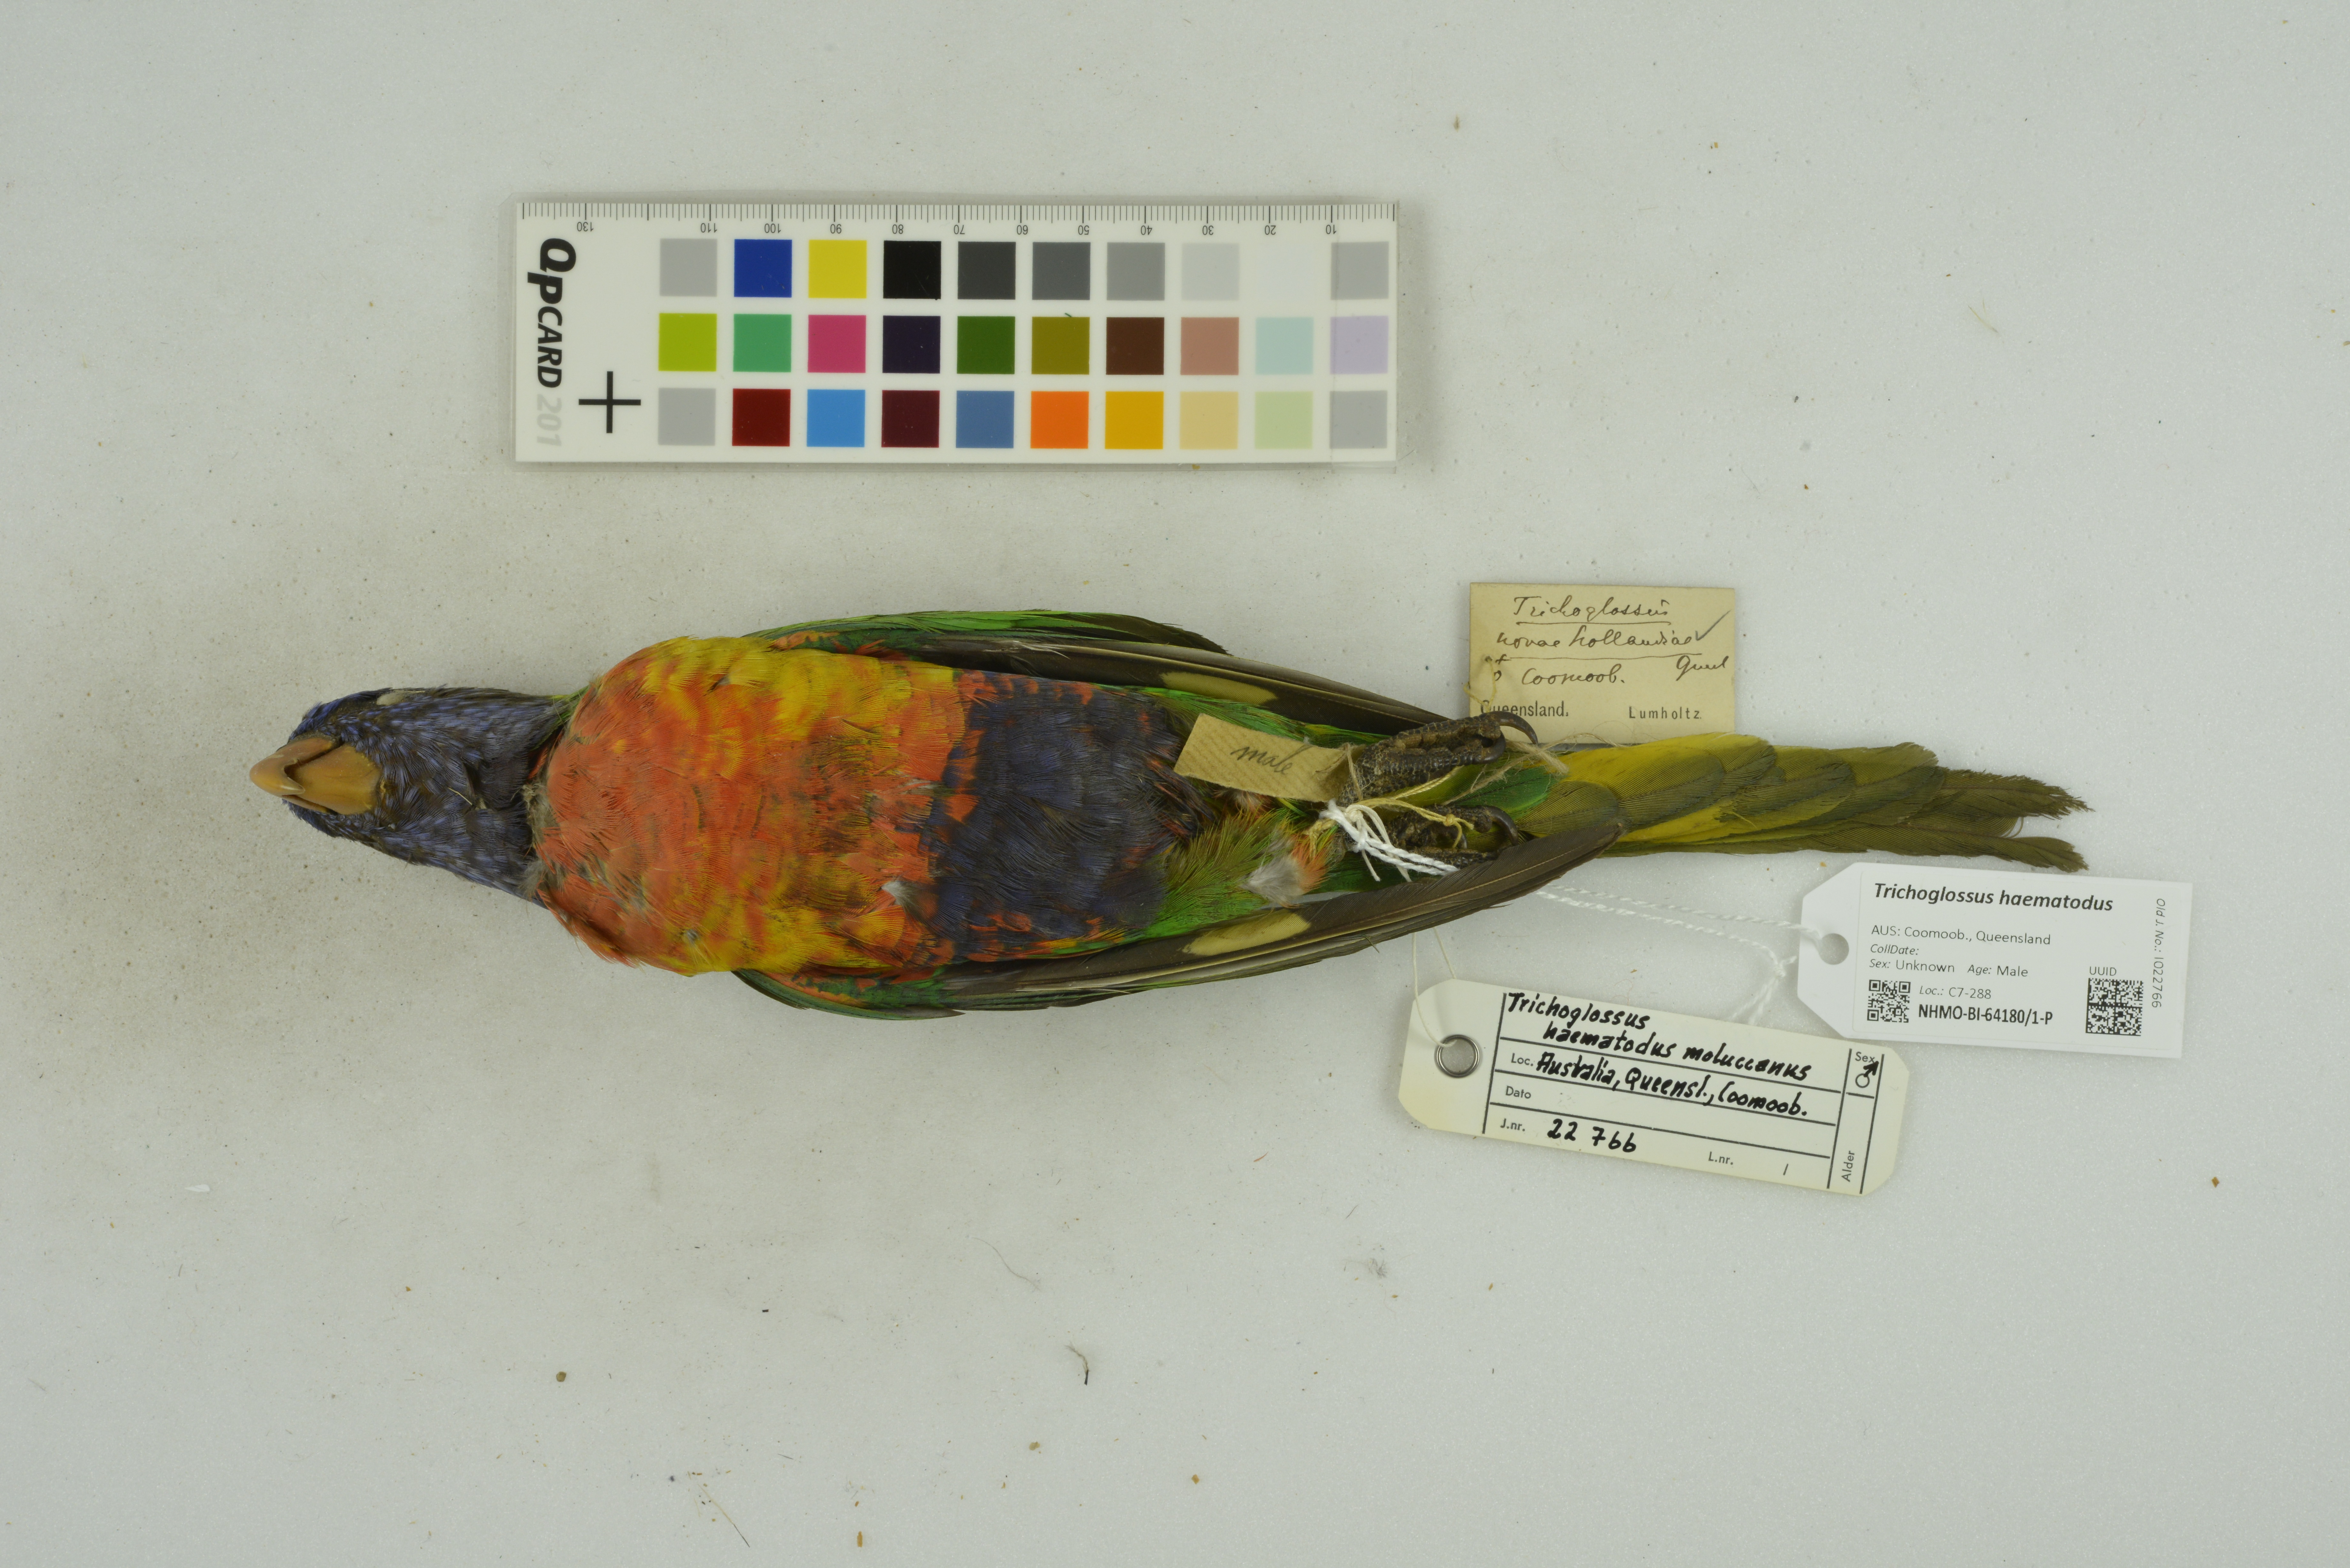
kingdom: Animalia
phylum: Chordata
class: Aves
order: Psittaciformes
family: Psittacidae
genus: Trichoglossus
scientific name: Trichoglossus haematodus
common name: Coconut lorikeet
